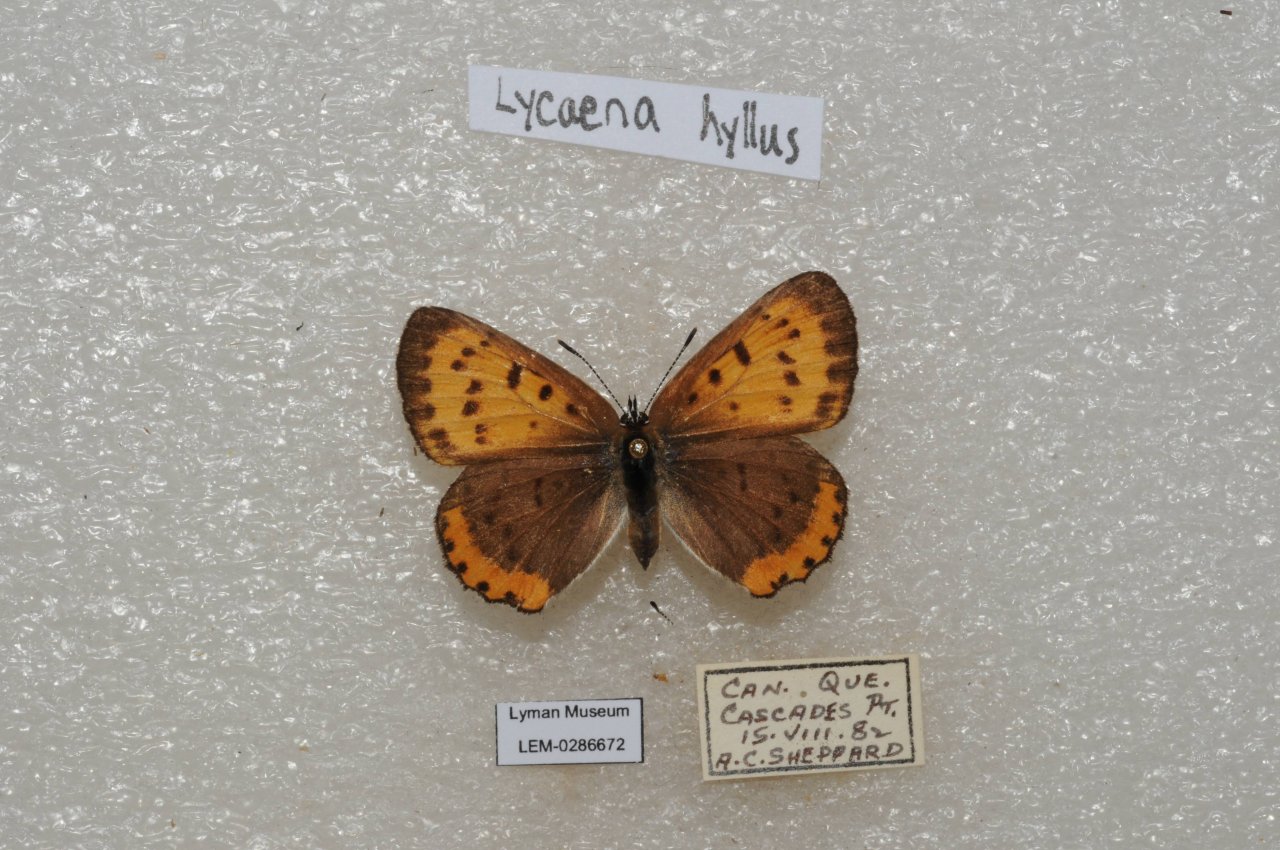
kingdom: Animalia
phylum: Arthropoda
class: Insecta
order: Lepidoptera
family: Sesiidae
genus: Sesia
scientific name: Sesia Lycaena hyllus
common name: Bronze Copper
